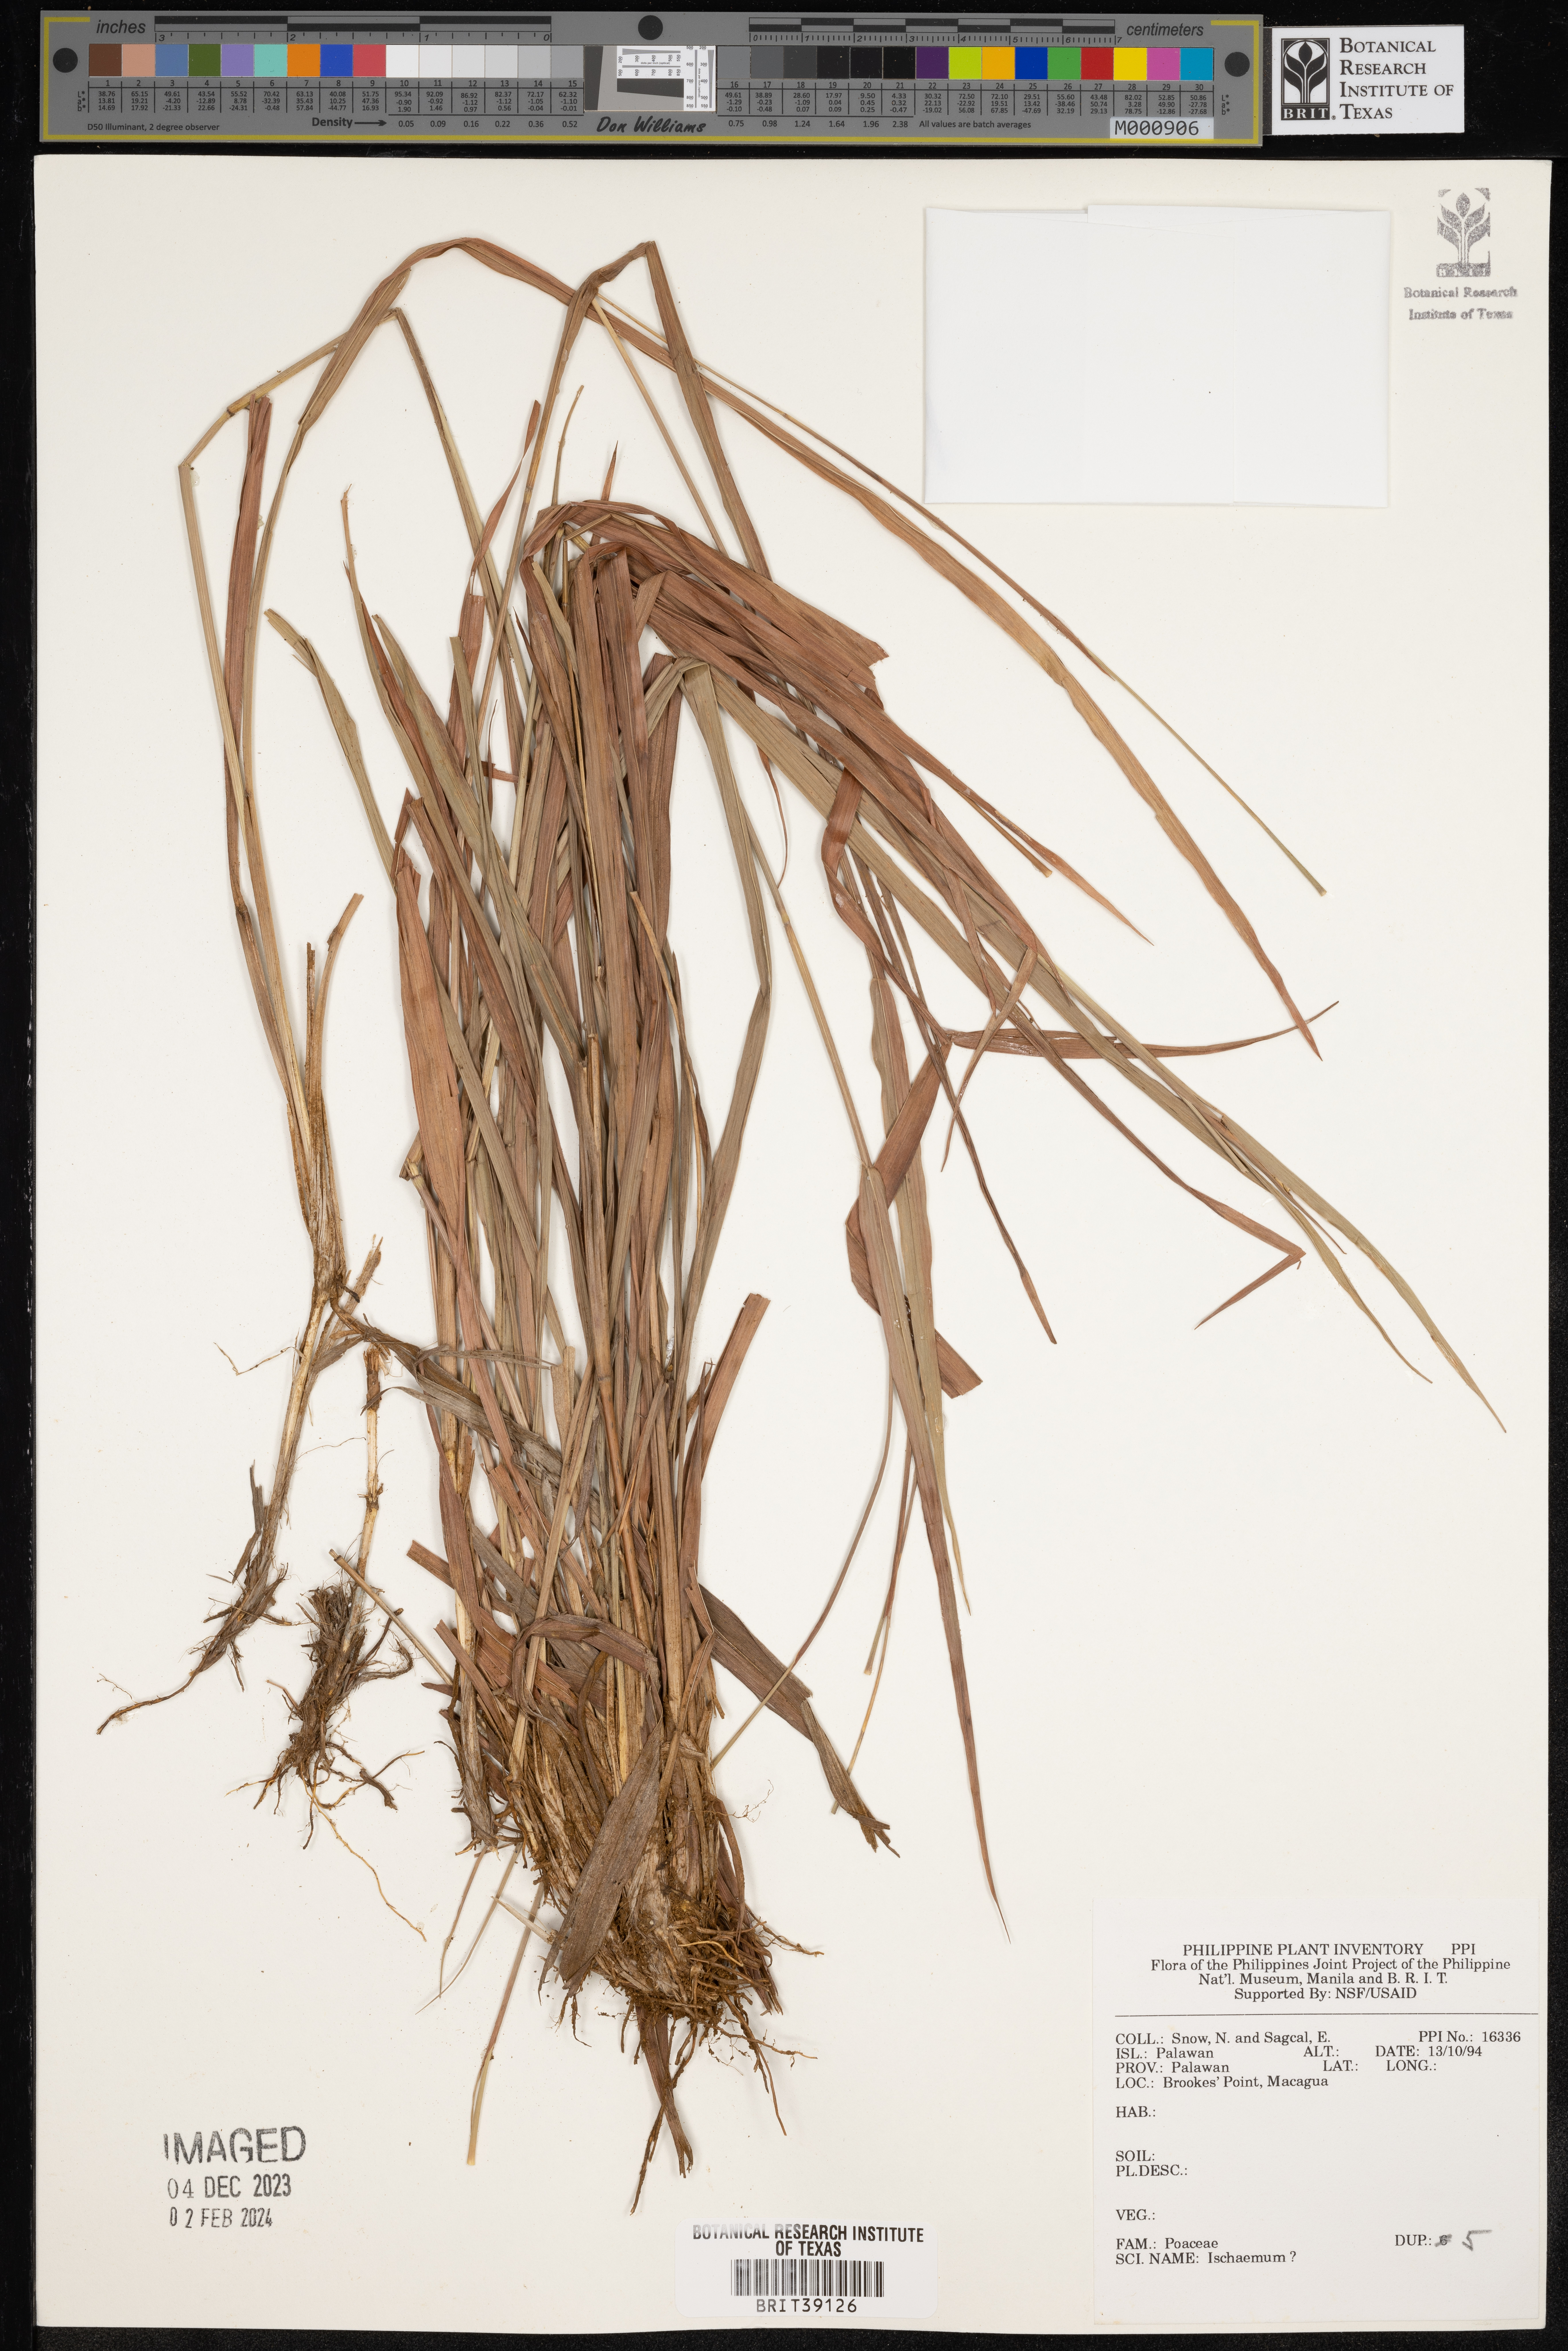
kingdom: Plantae
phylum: Tracheophyta
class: Liliopsida
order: Poales
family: Poaceae
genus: Ischaemum
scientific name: Ischaemum
